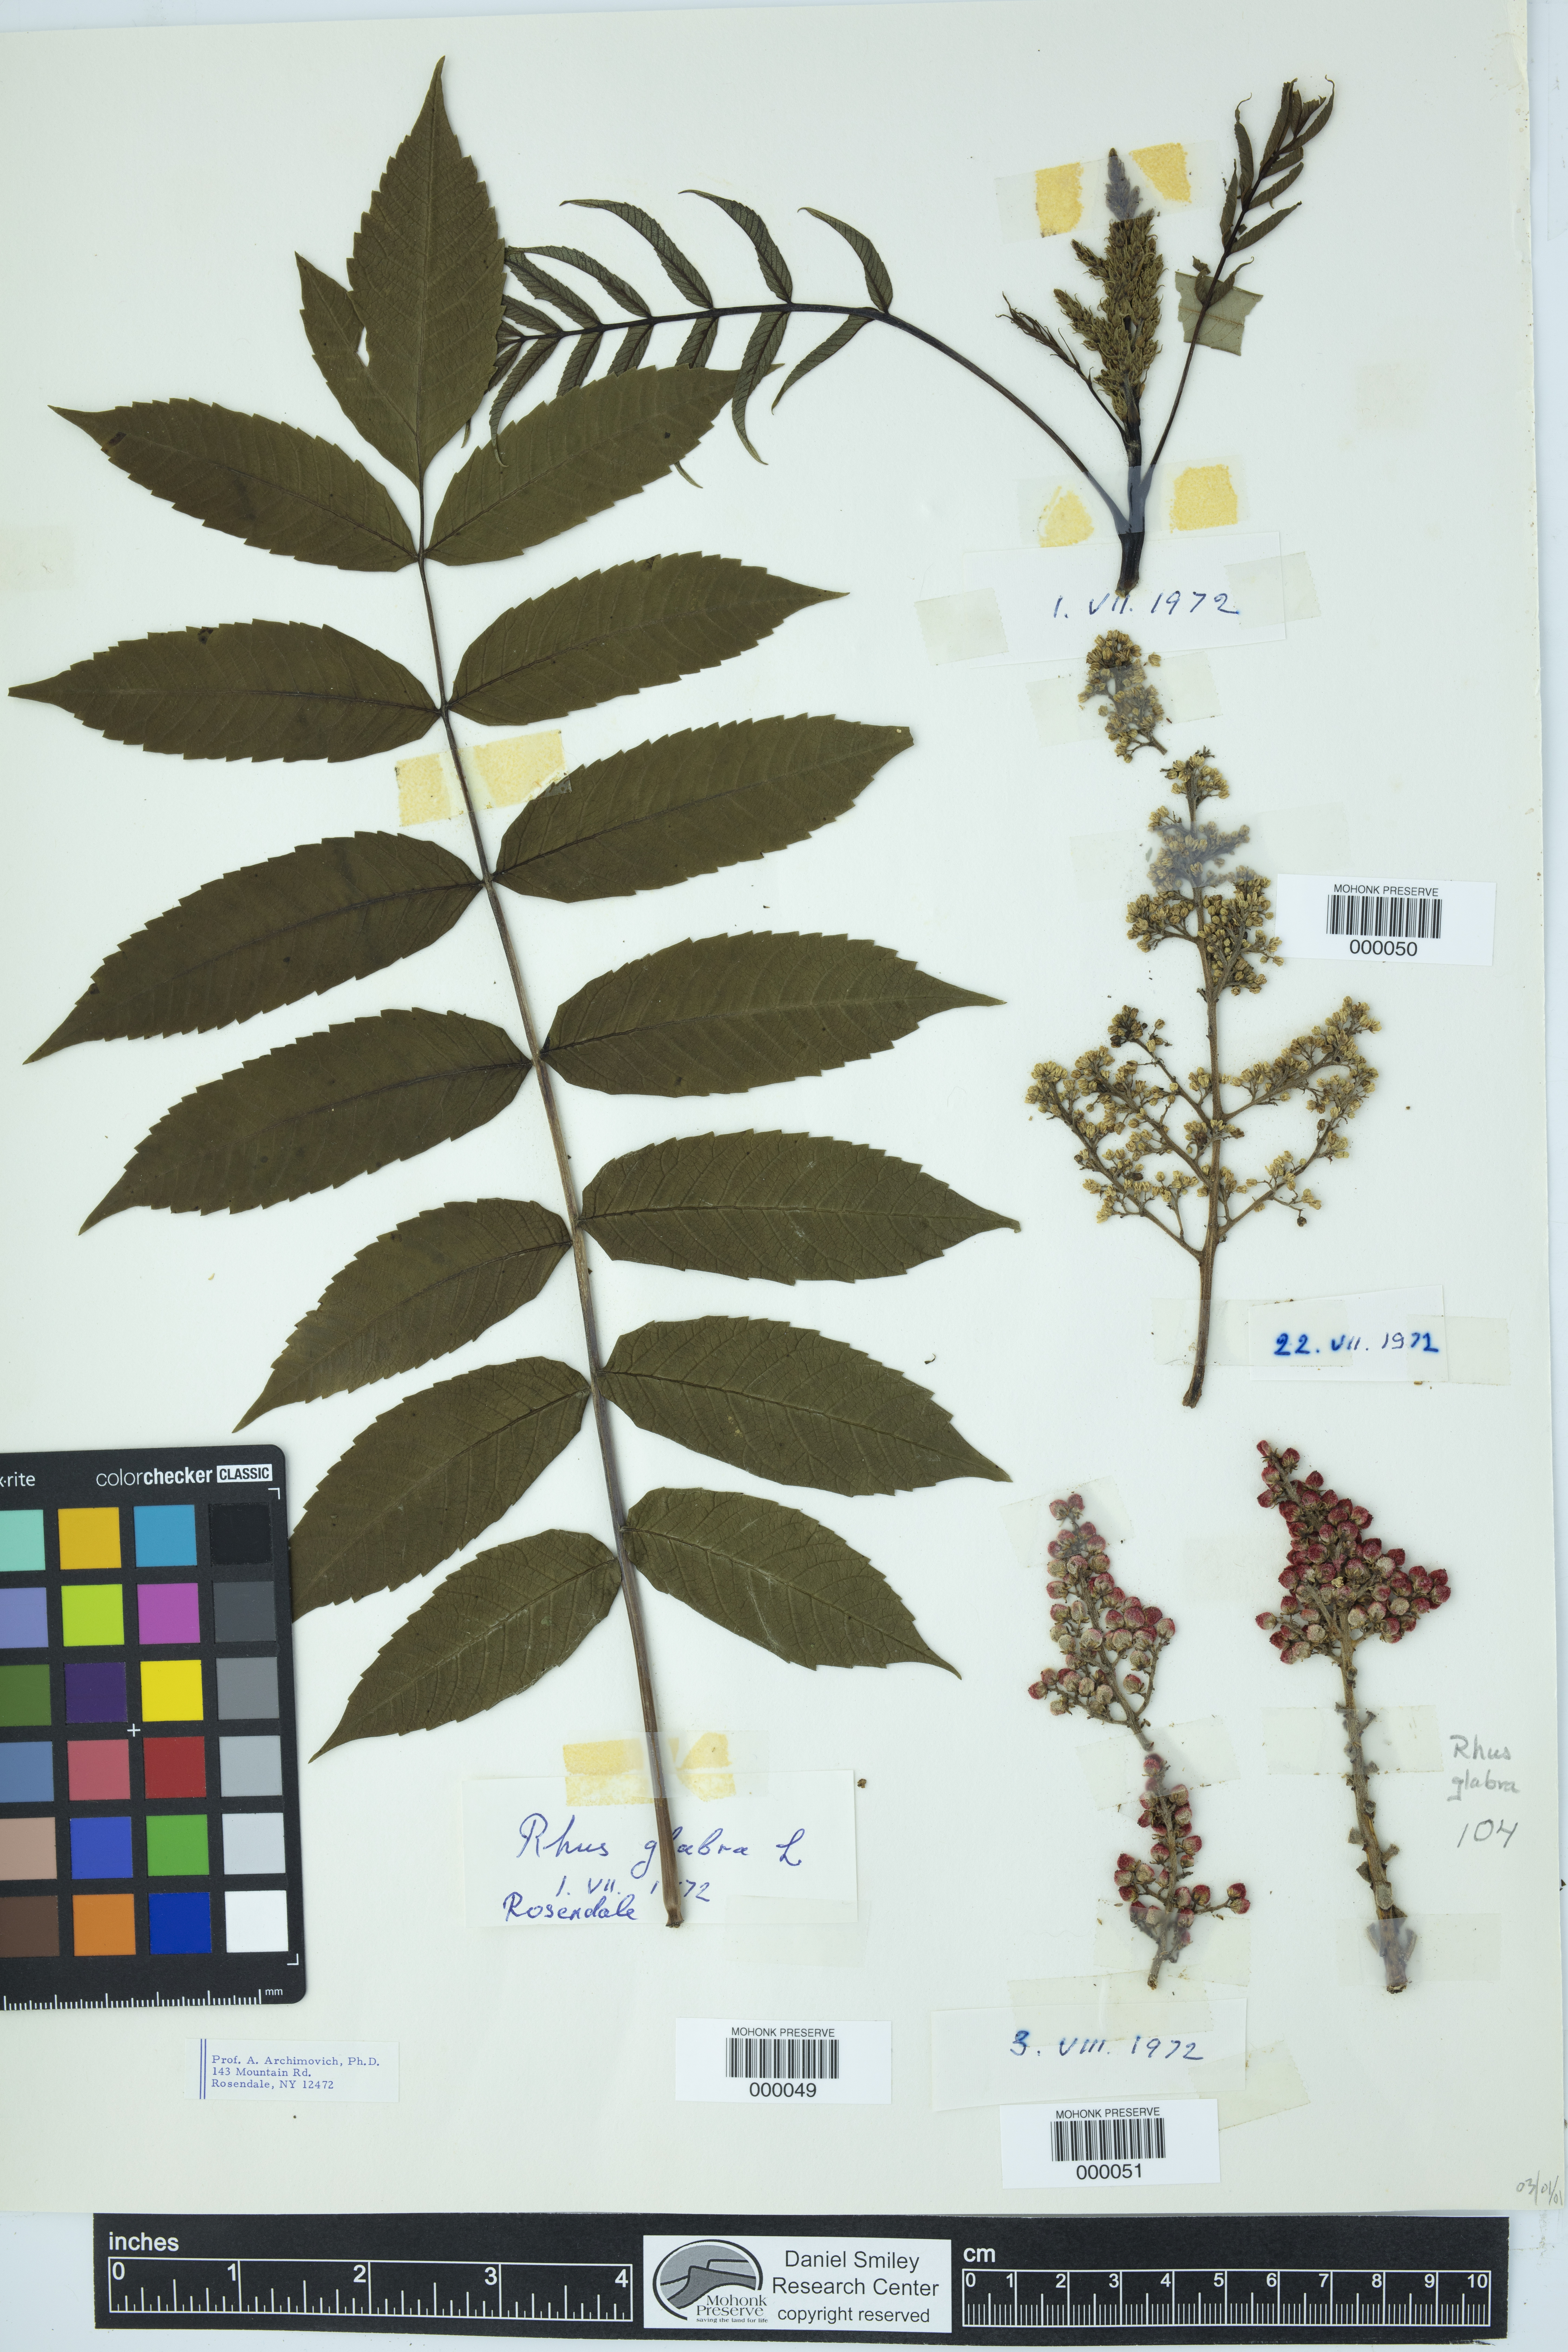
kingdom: Plantae
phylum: Tracheophyta
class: Magnoliopsida
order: Sapindales
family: Anacardiaceae
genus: Rhus
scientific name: Rhus glabra
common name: Scarlet sumac
